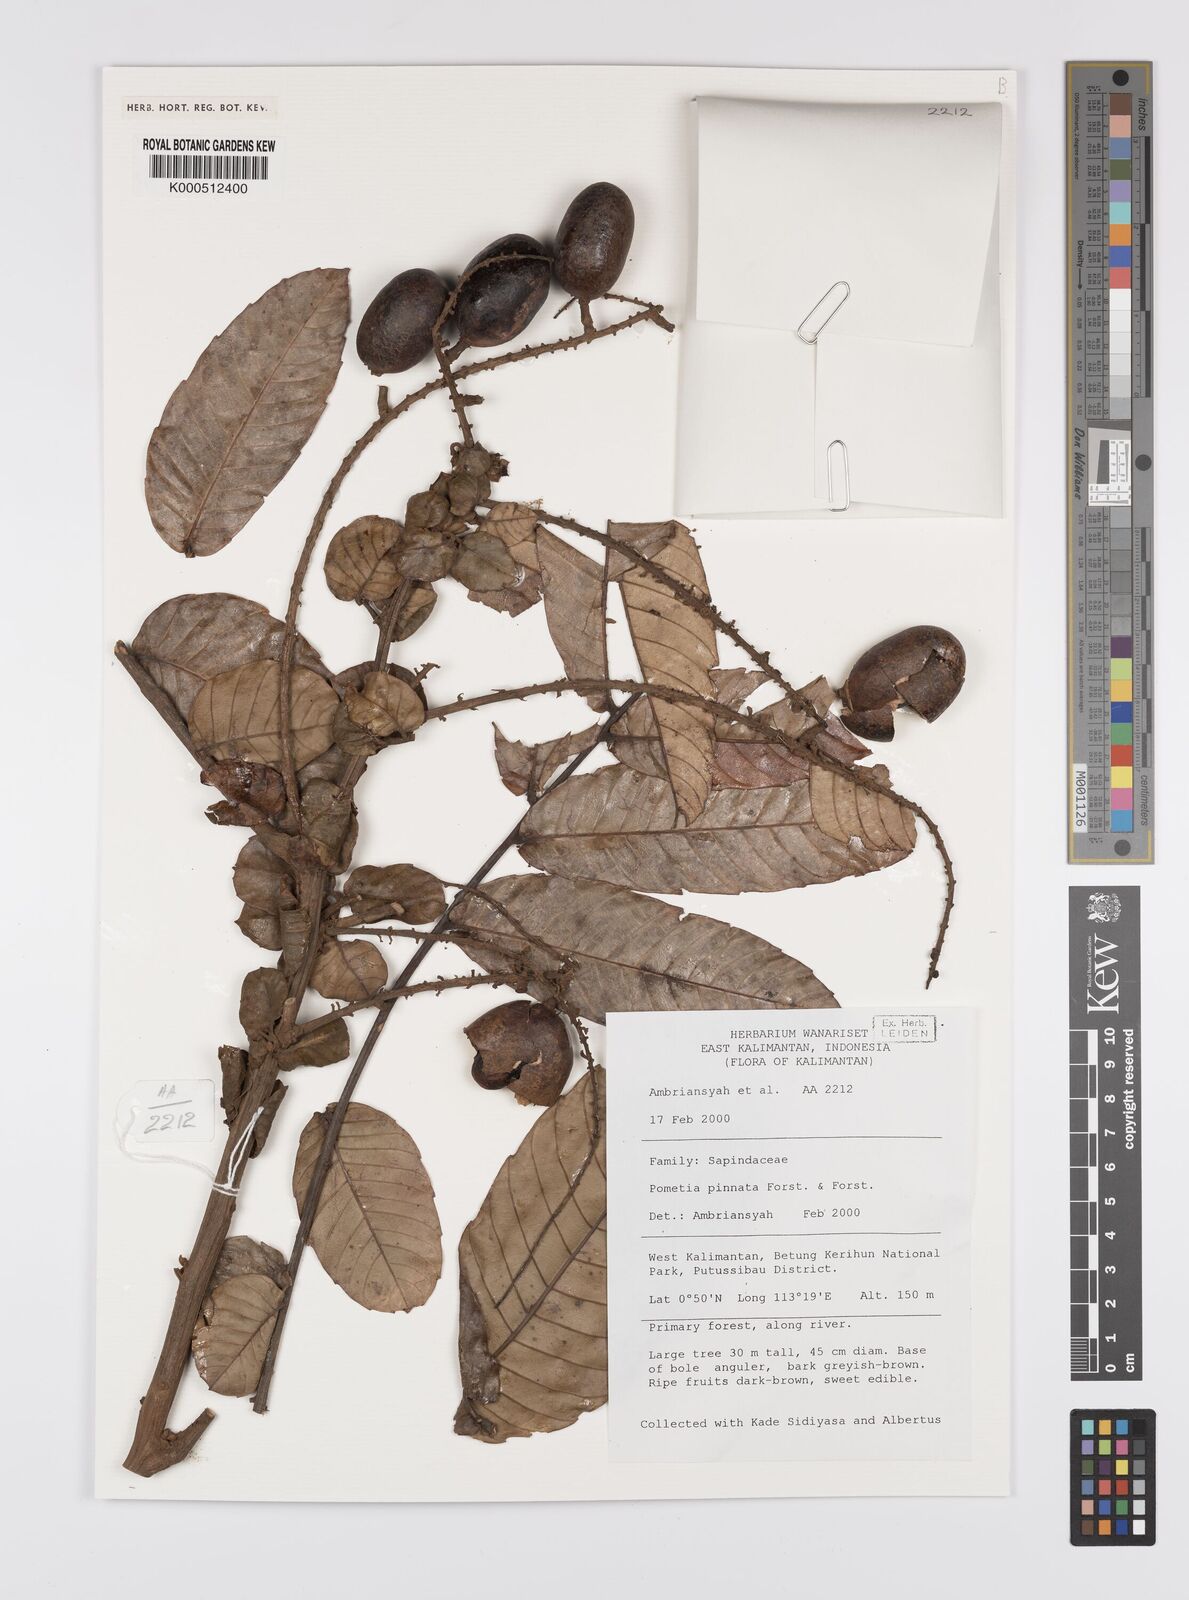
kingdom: Plantae
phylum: Tracheophyta
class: Magnoliopsida
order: Sapindales
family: Sapindaceae
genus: Pometia
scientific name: Pometia pinnata
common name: Oceanic lychee
